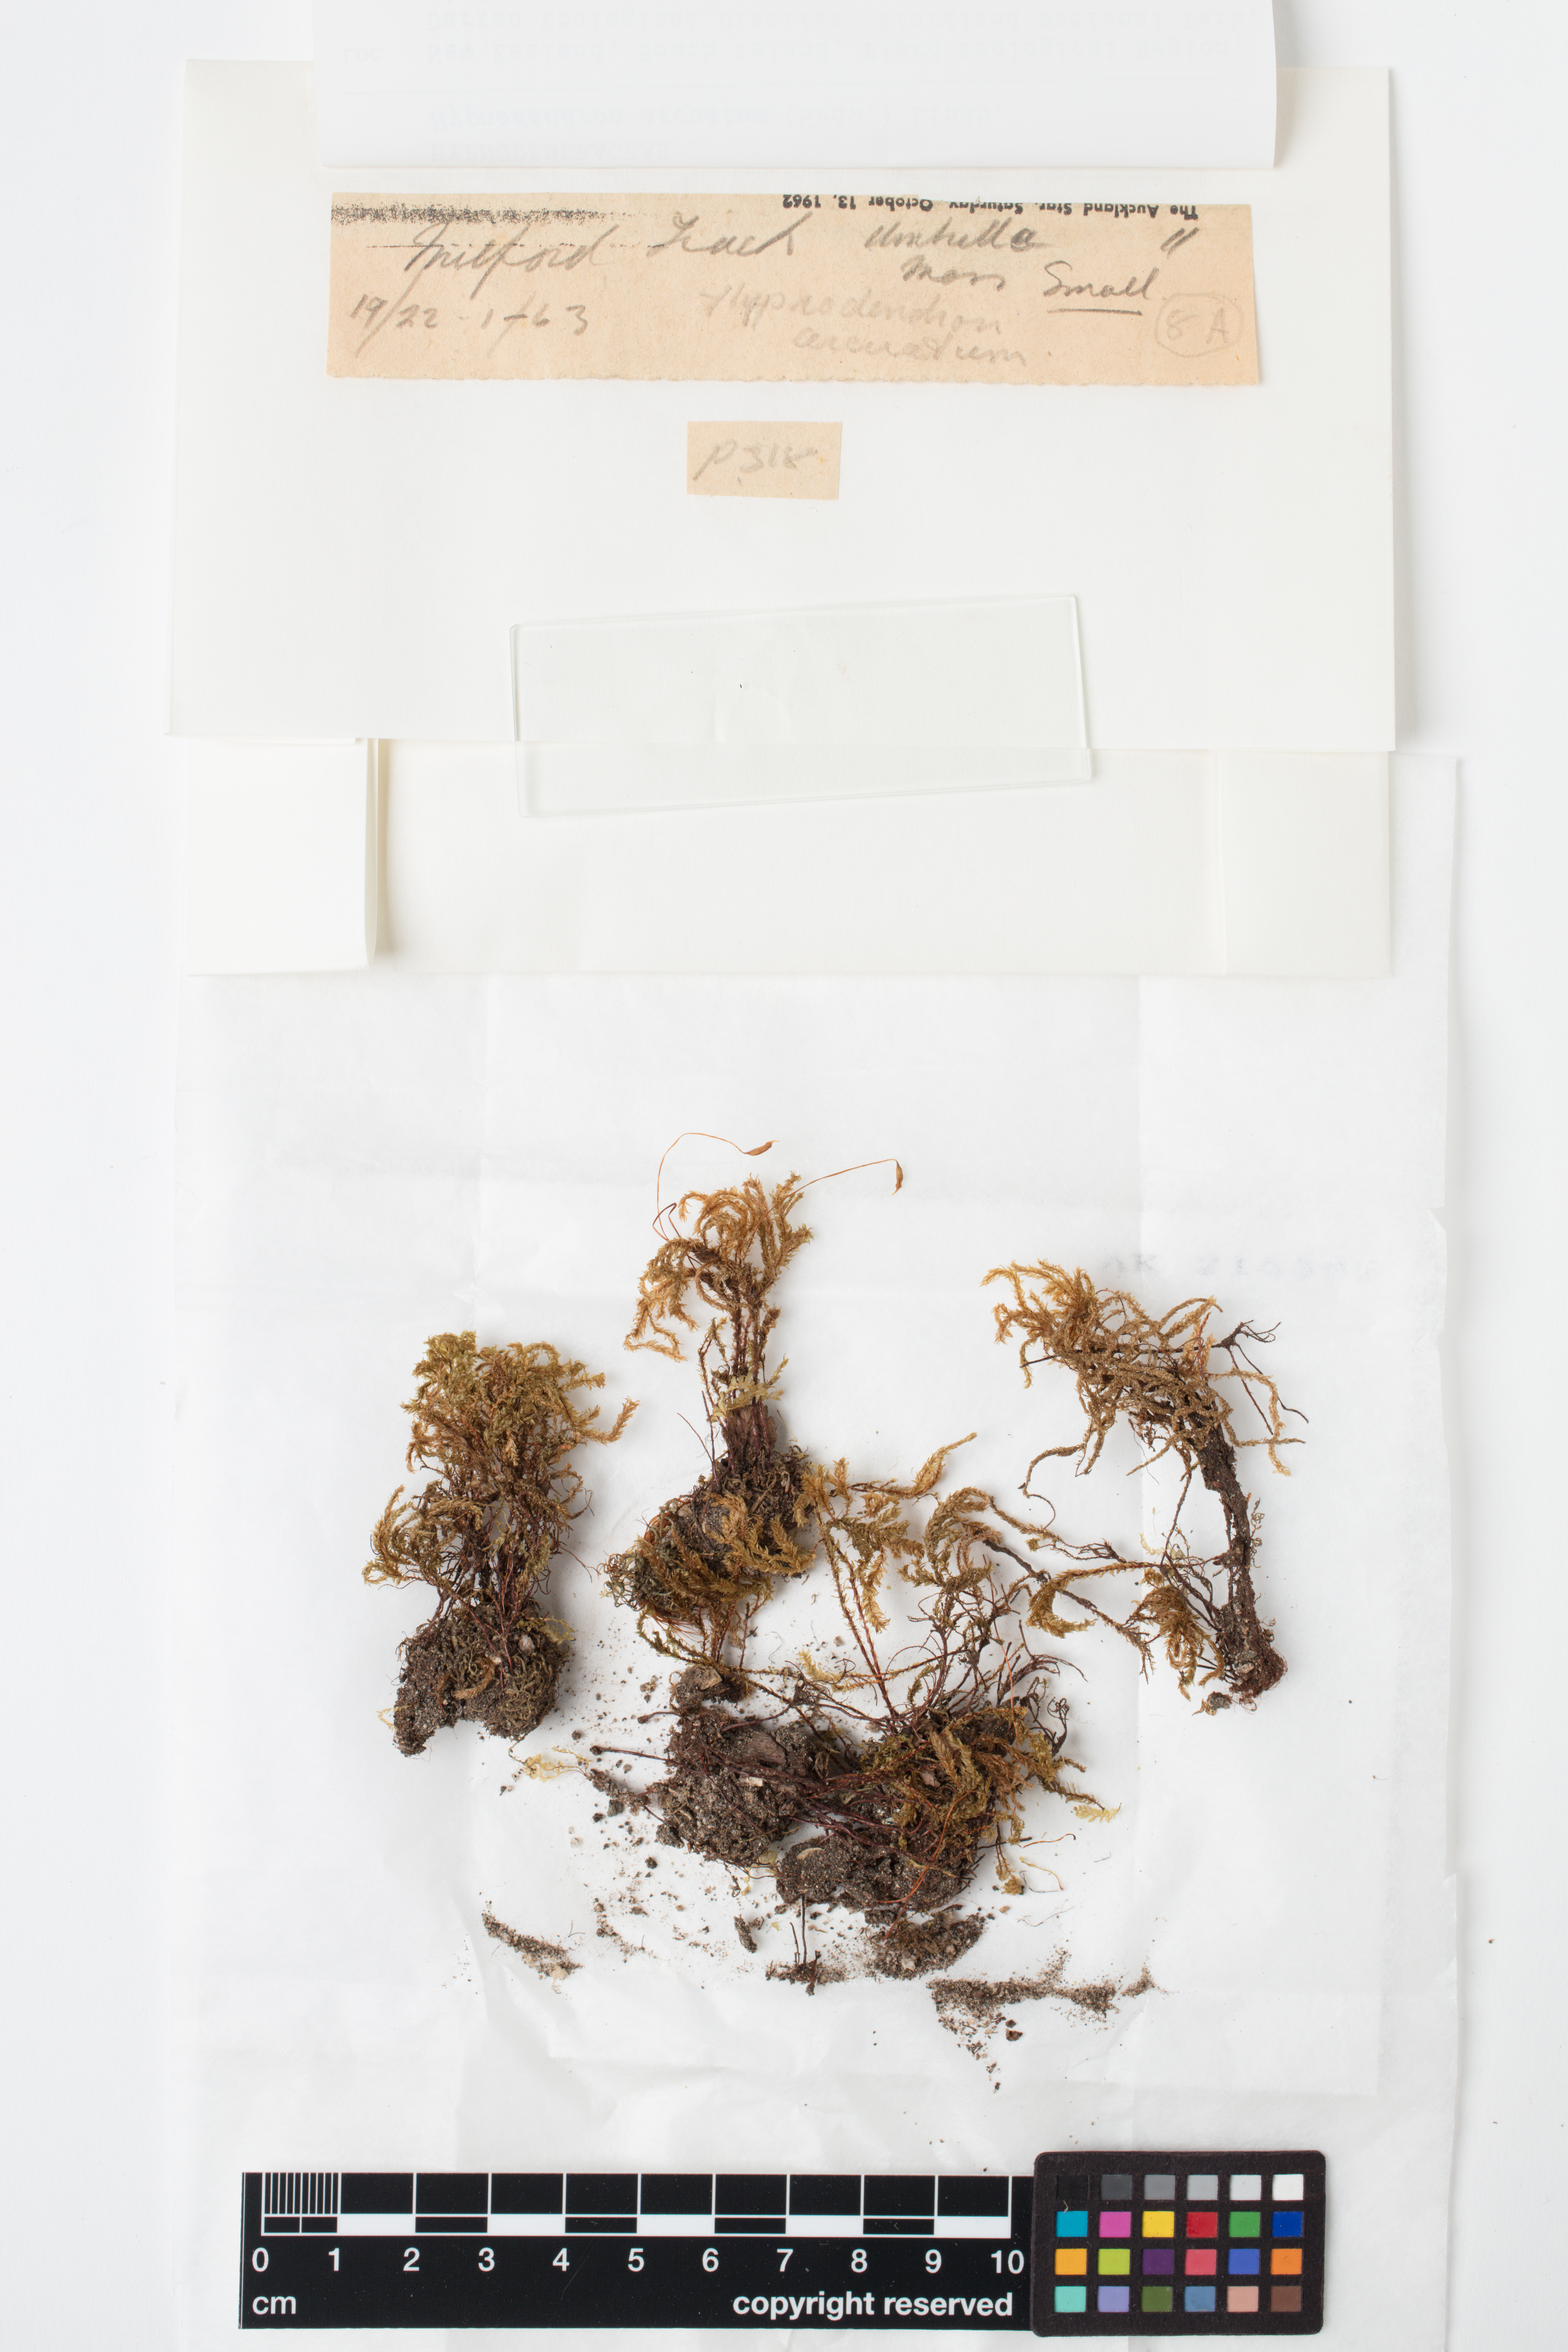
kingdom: Plantae
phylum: Bryophyta
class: Bryopsida
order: Hypnodendrales
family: Spiridentaceae
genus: Hypnodendron
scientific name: Hypnodendron arcuatum
